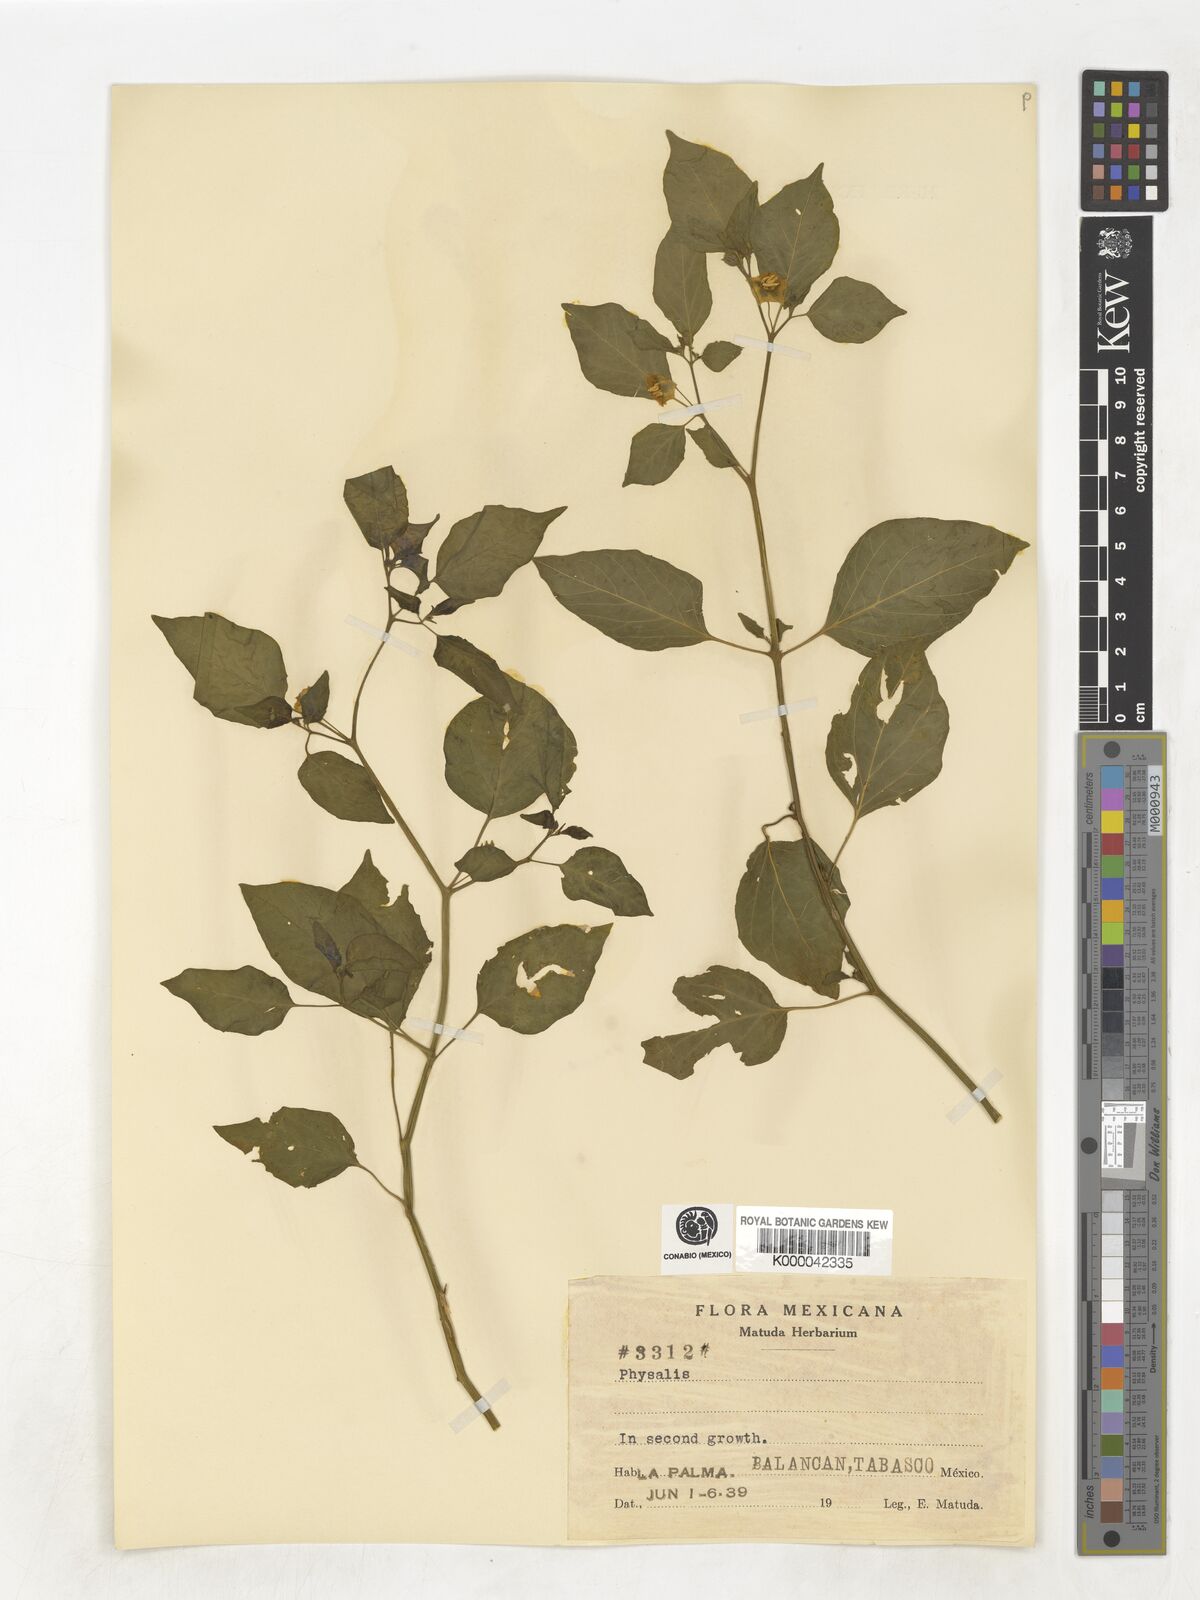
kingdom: Plantae
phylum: Tracheophyta
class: Magnoliopsida
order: Solanales
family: Solanaceae
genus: Physalis
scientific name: Physalis
